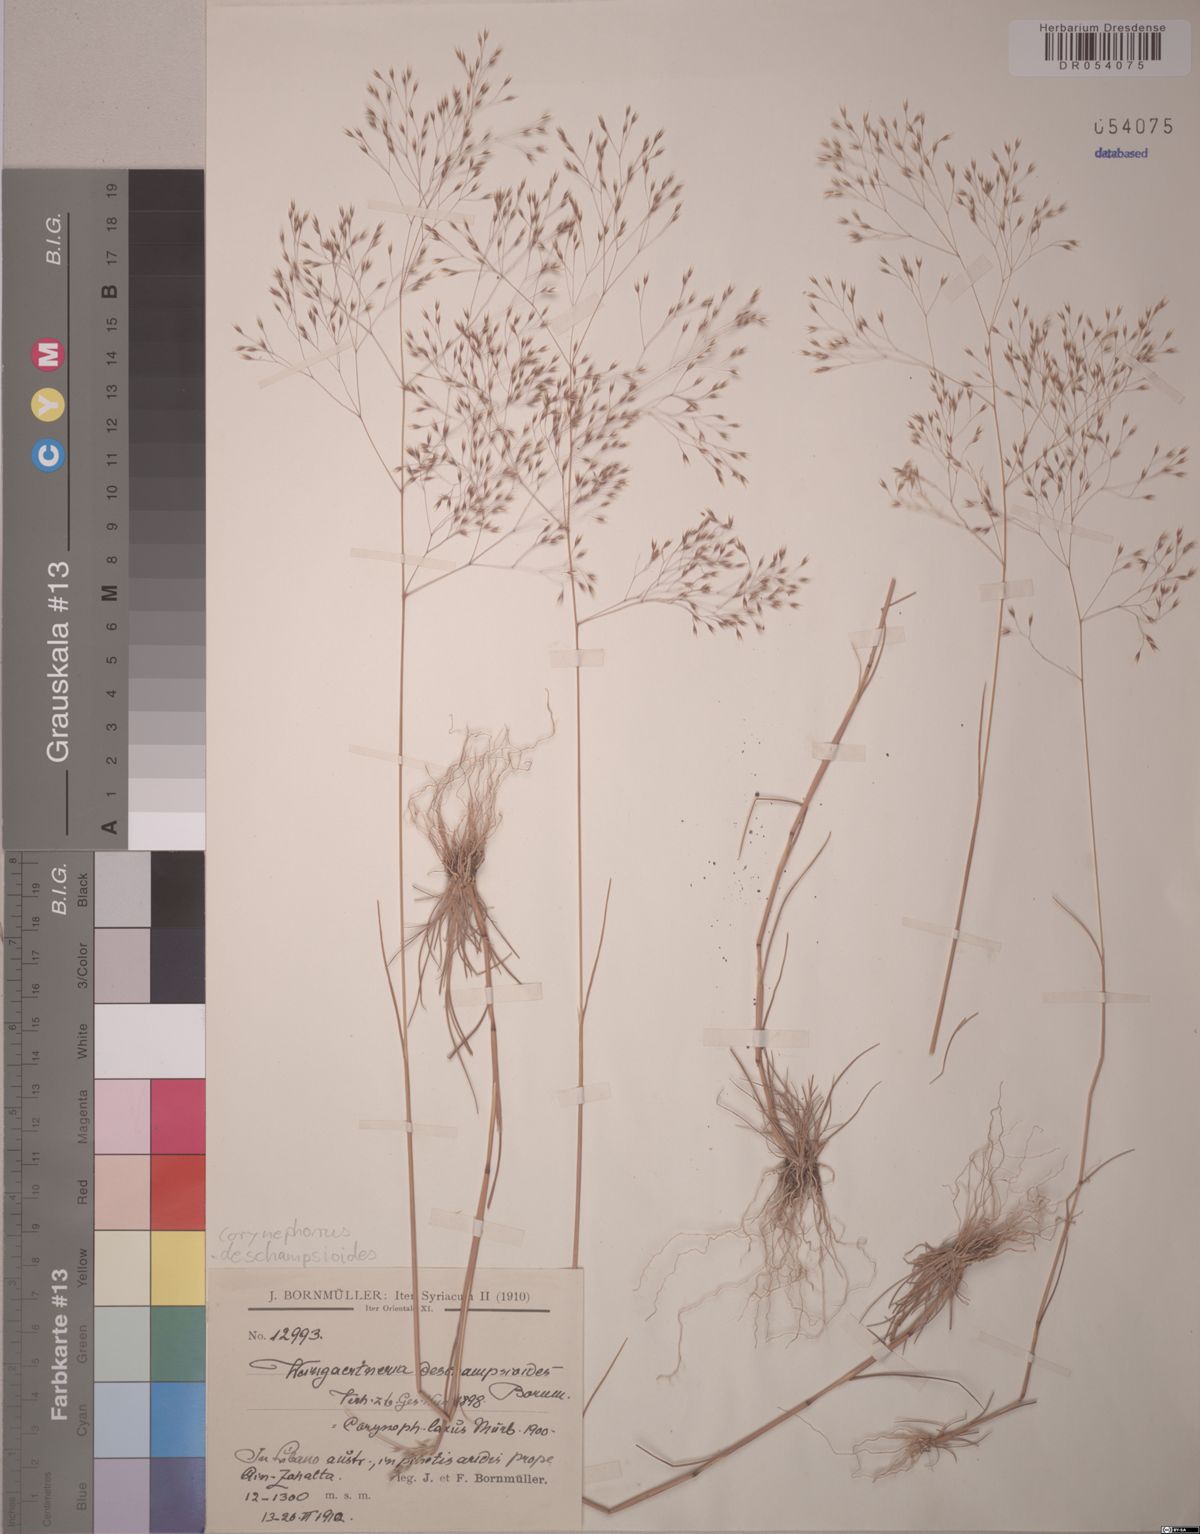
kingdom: Plantae
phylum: Tracheophyta
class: Liliopsida
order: Poales
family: Poaceae
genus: Corynephorus
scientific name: Corynephorus deschampsioides
